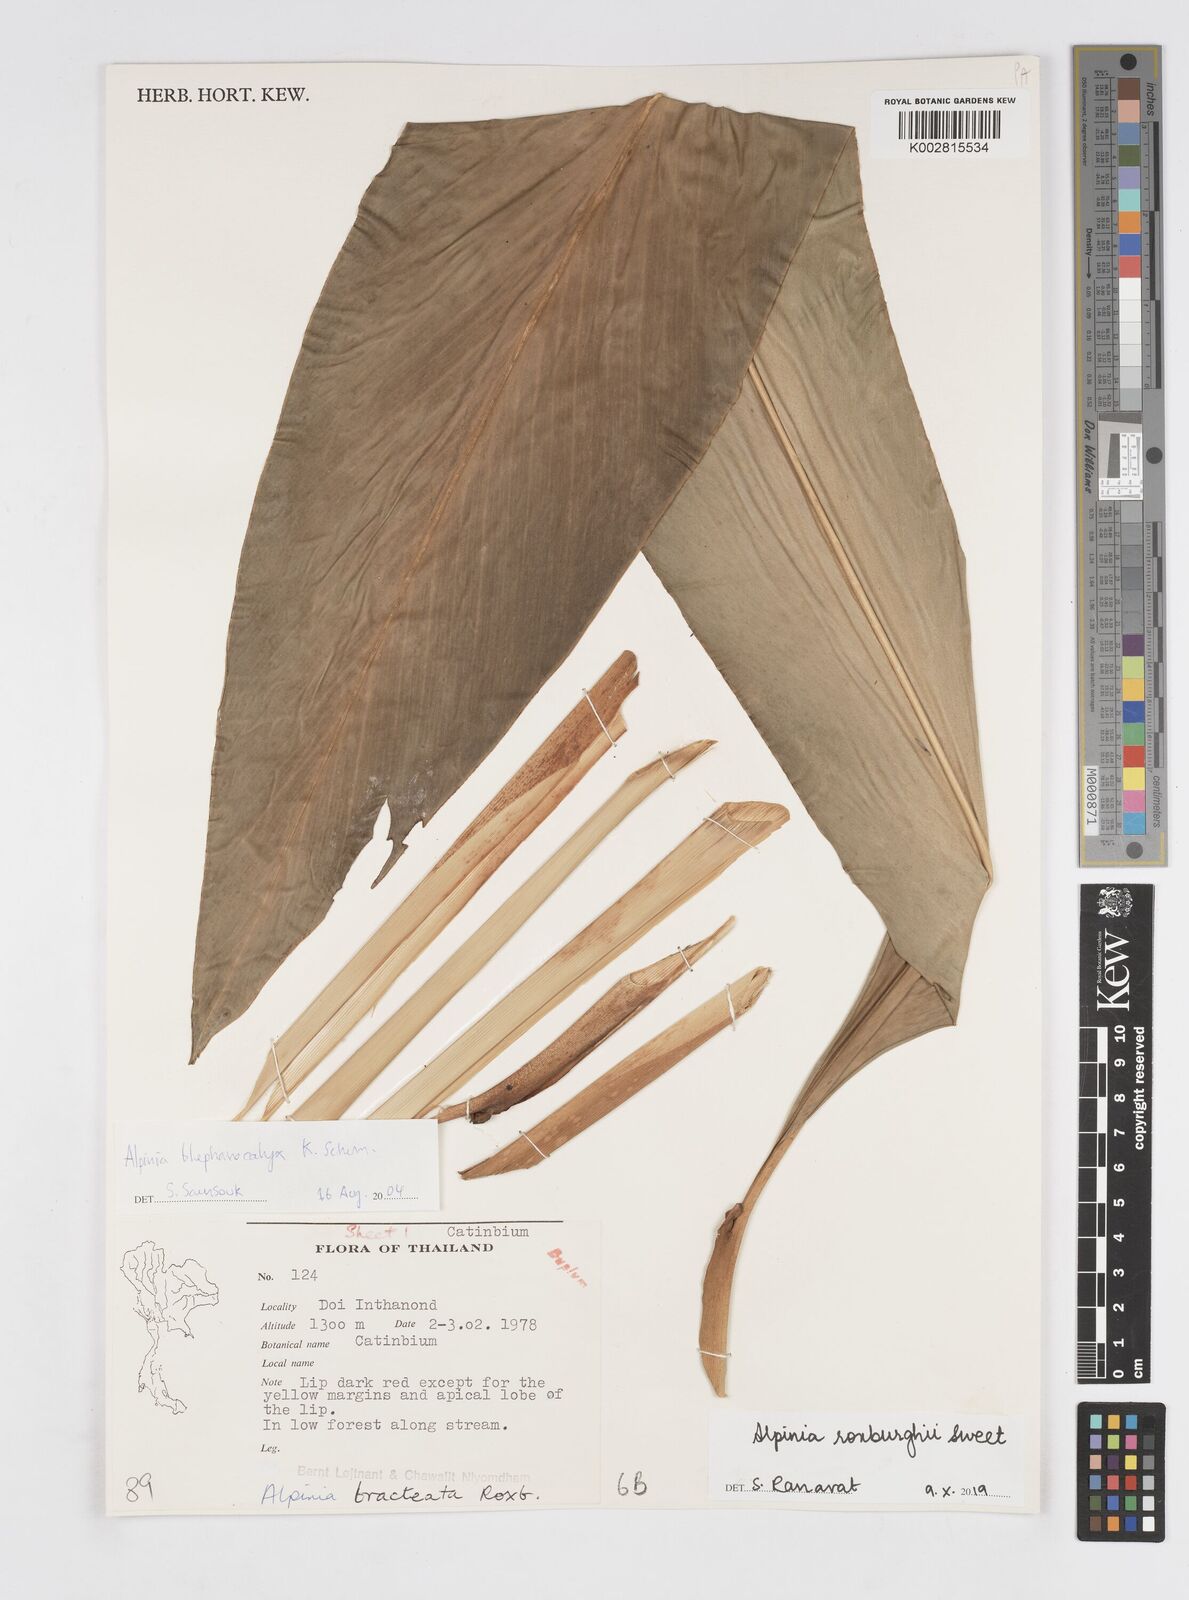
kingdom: Plantae
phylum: Tracheophyta
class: Liliopsida
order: Zingiberales
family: Zingiberaceae
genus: Alpinia
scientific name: Alpinia roxburghii
